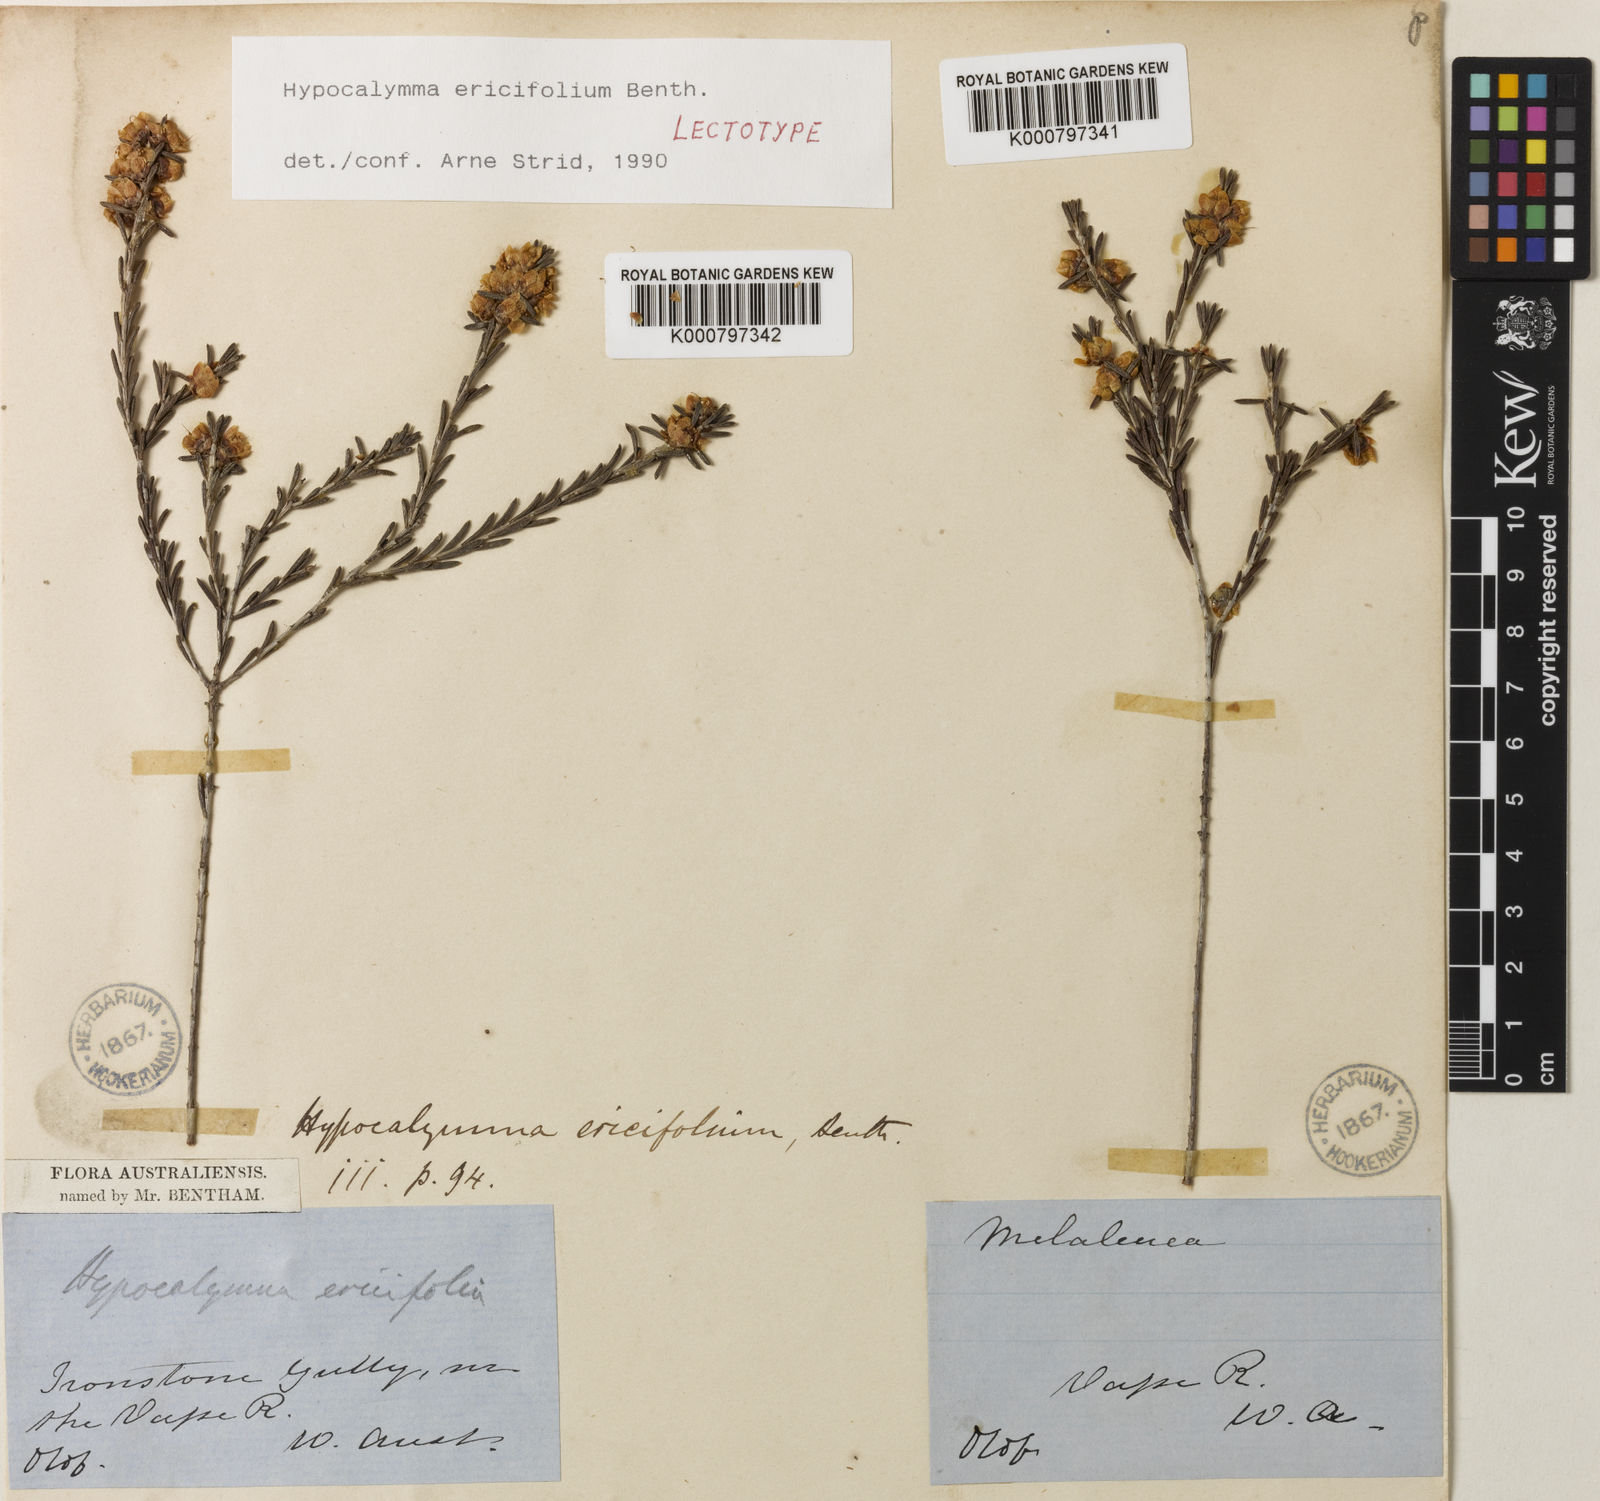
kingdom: Plantae
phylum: Tracheophyta
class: Magnoliopsida
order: Myrtales
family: Myrtaceae
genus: Hypocalymma
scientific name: Hypocalymma ericifolium
